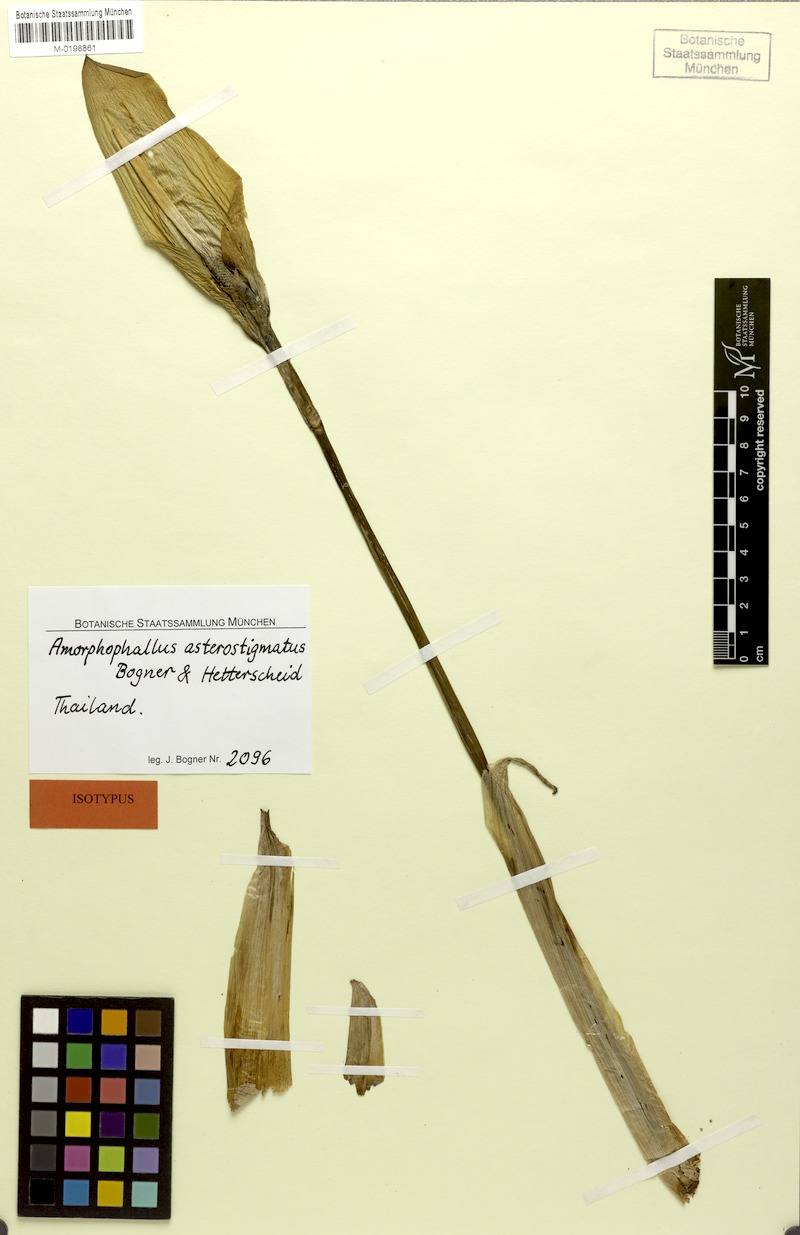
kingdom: Plantae
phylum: Tracheophyta
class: Liliopsida
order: Alismatales
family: Araceae
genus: Amorphophallus
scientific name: Amorphophallus asterostigmatus
